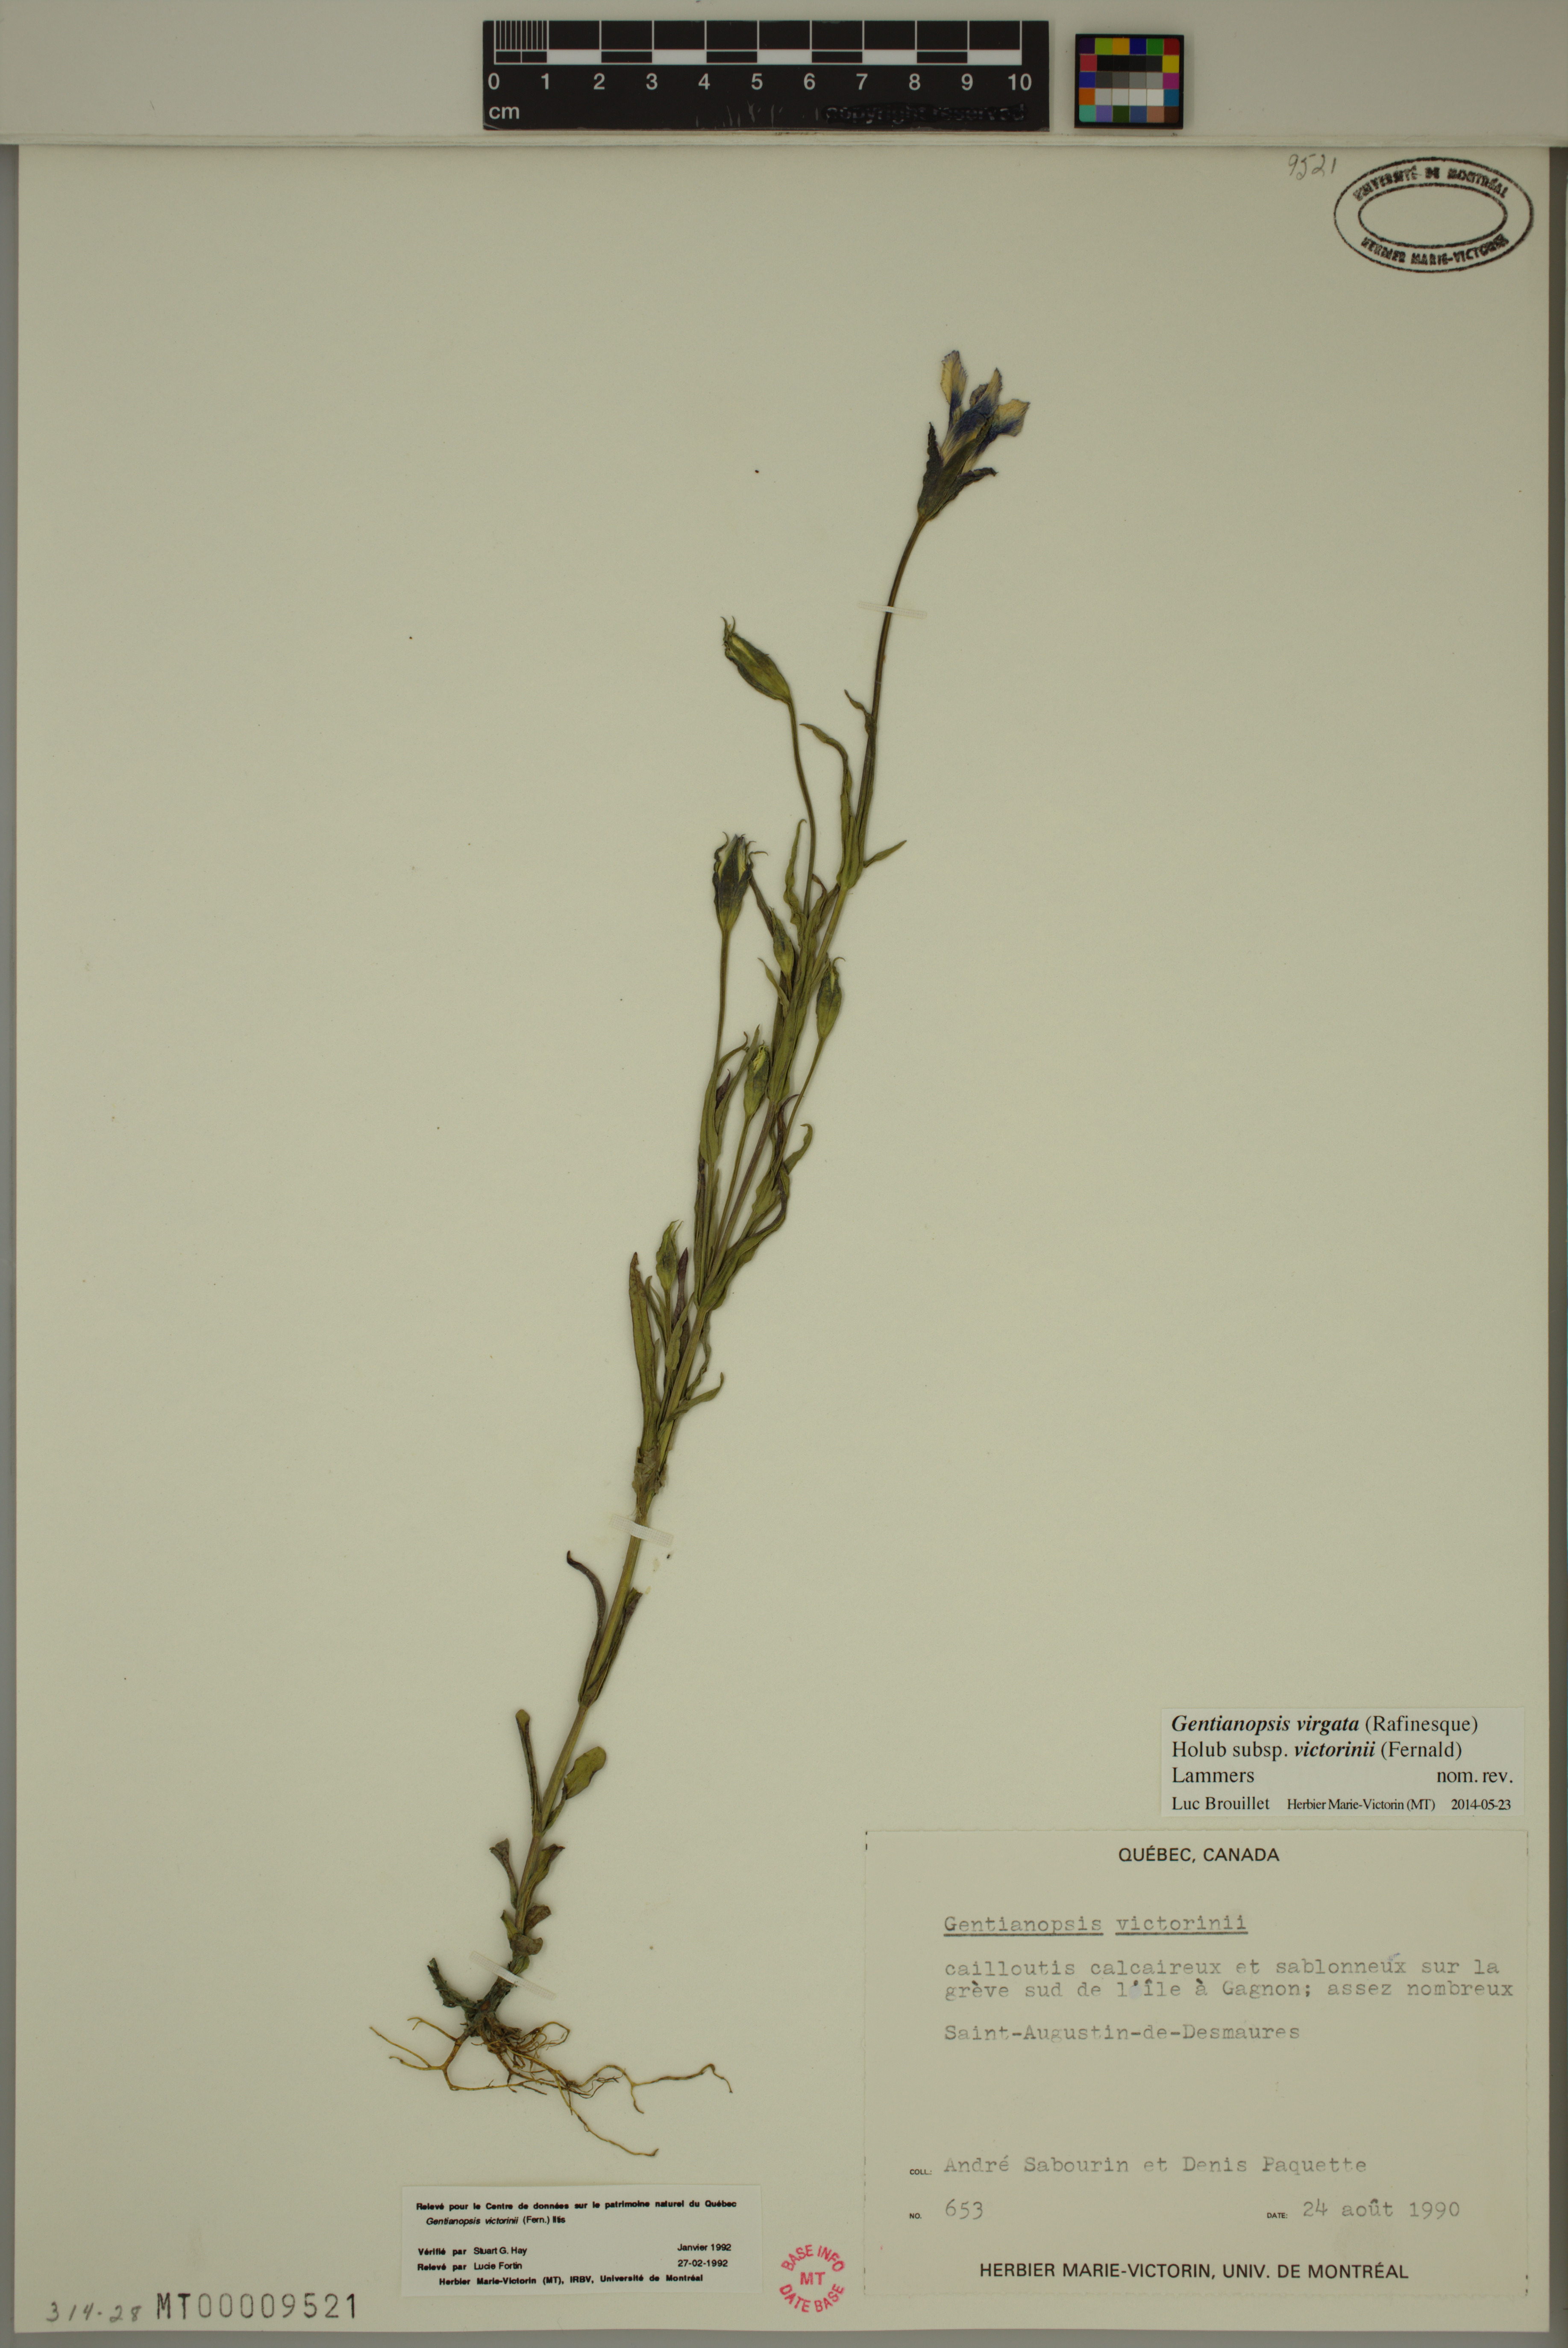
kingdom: Plantae
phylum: Tracheophyta
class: Magnoliopsida
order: Gentianales
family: Gentianaceae
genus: Gentianopsis
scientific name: Gentianopsis victorinii
